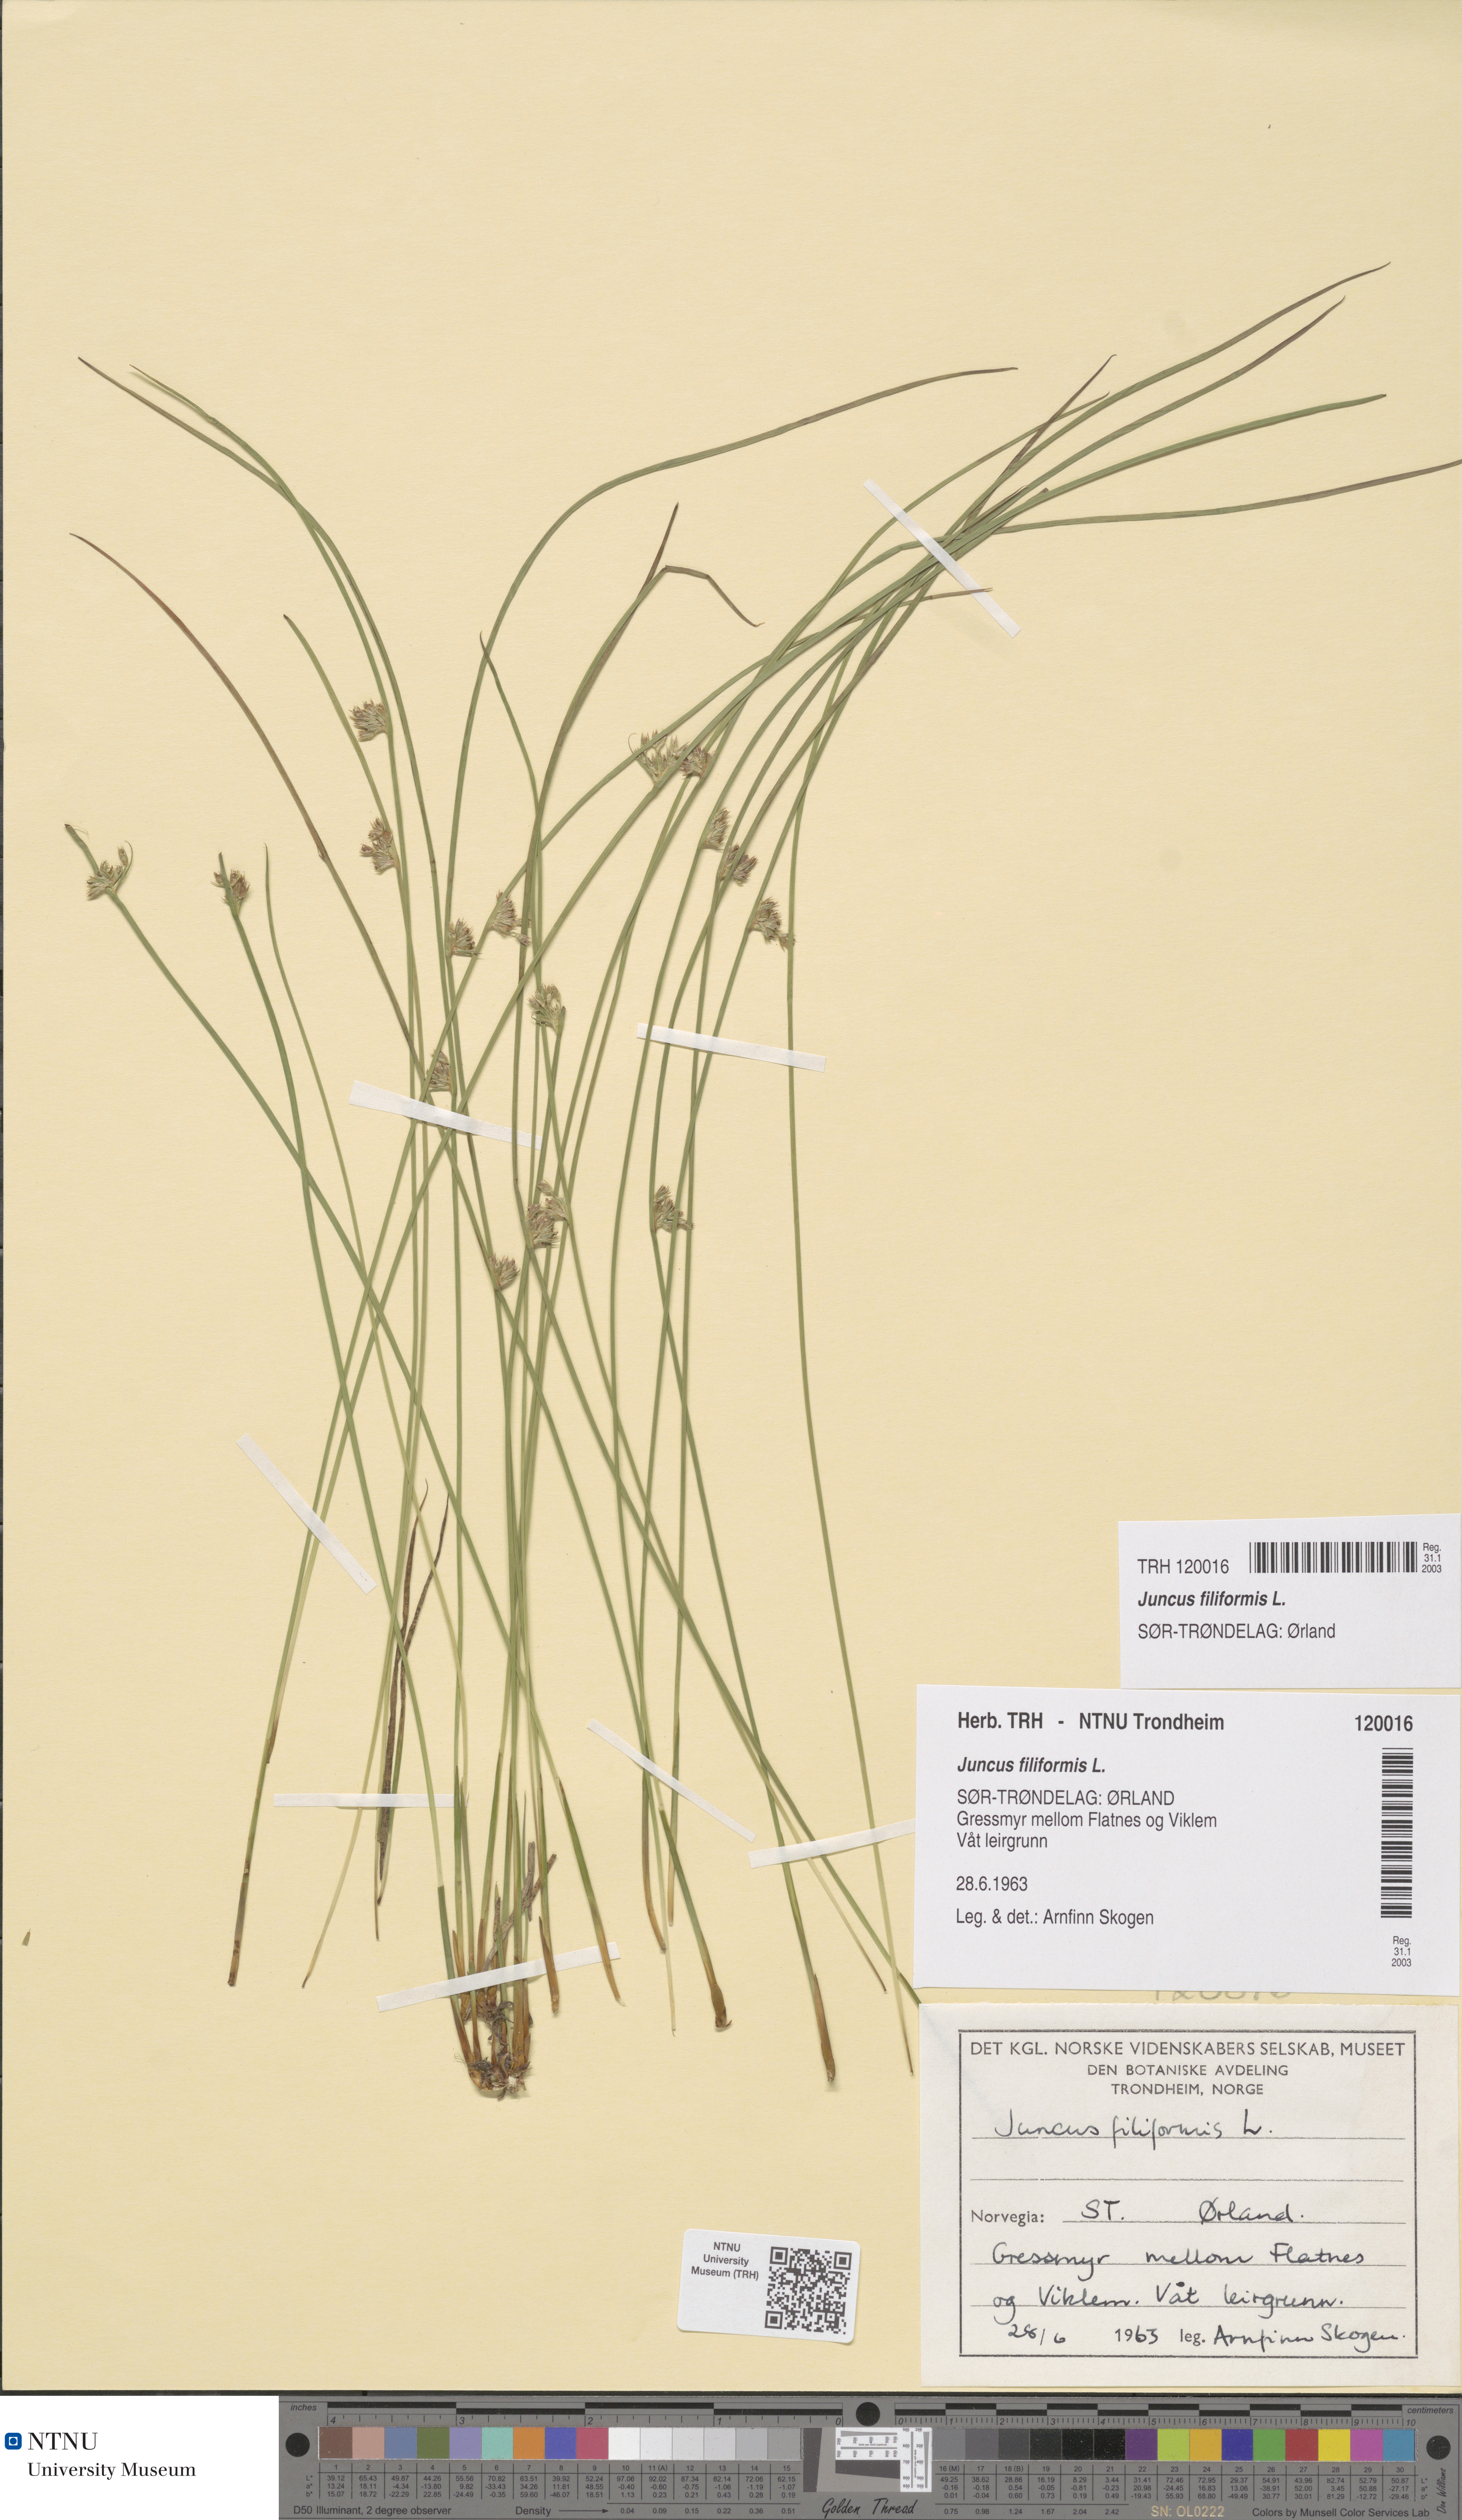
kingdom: Plantae
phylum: Tracheophyta
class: Liliopsida
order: Poales
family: Juncaceae
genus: Juncus
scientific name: Juncus filiformis
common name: Thread rush
